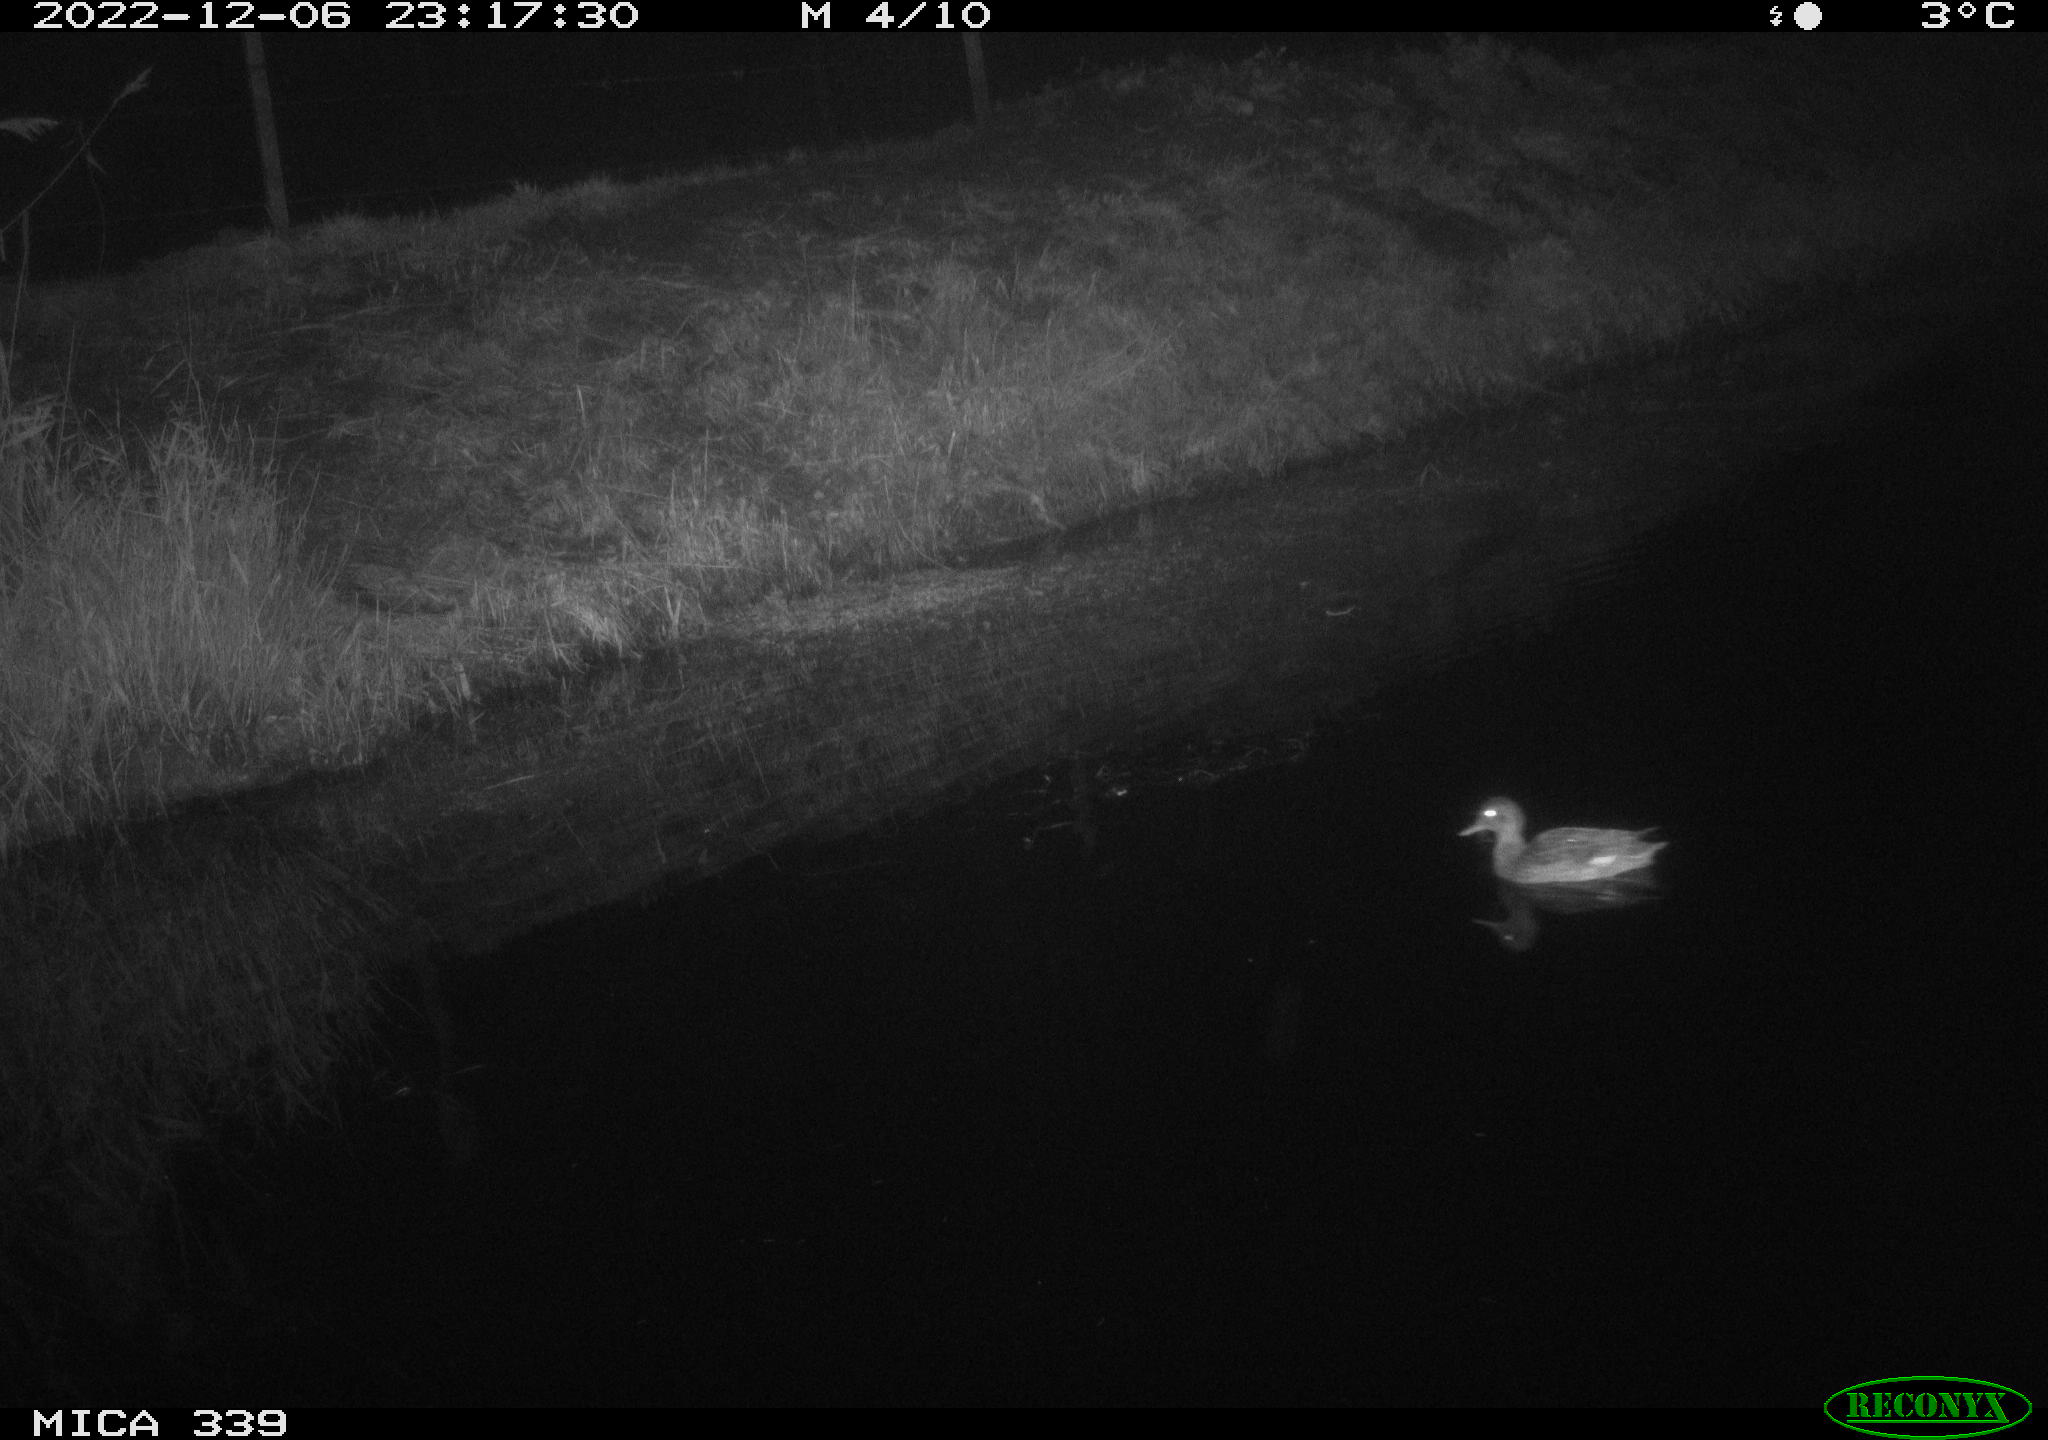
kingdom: Animalia
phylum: Chordata
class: Aves
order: Anseriformes
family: Anatidae
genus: Anas
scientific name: Anas
